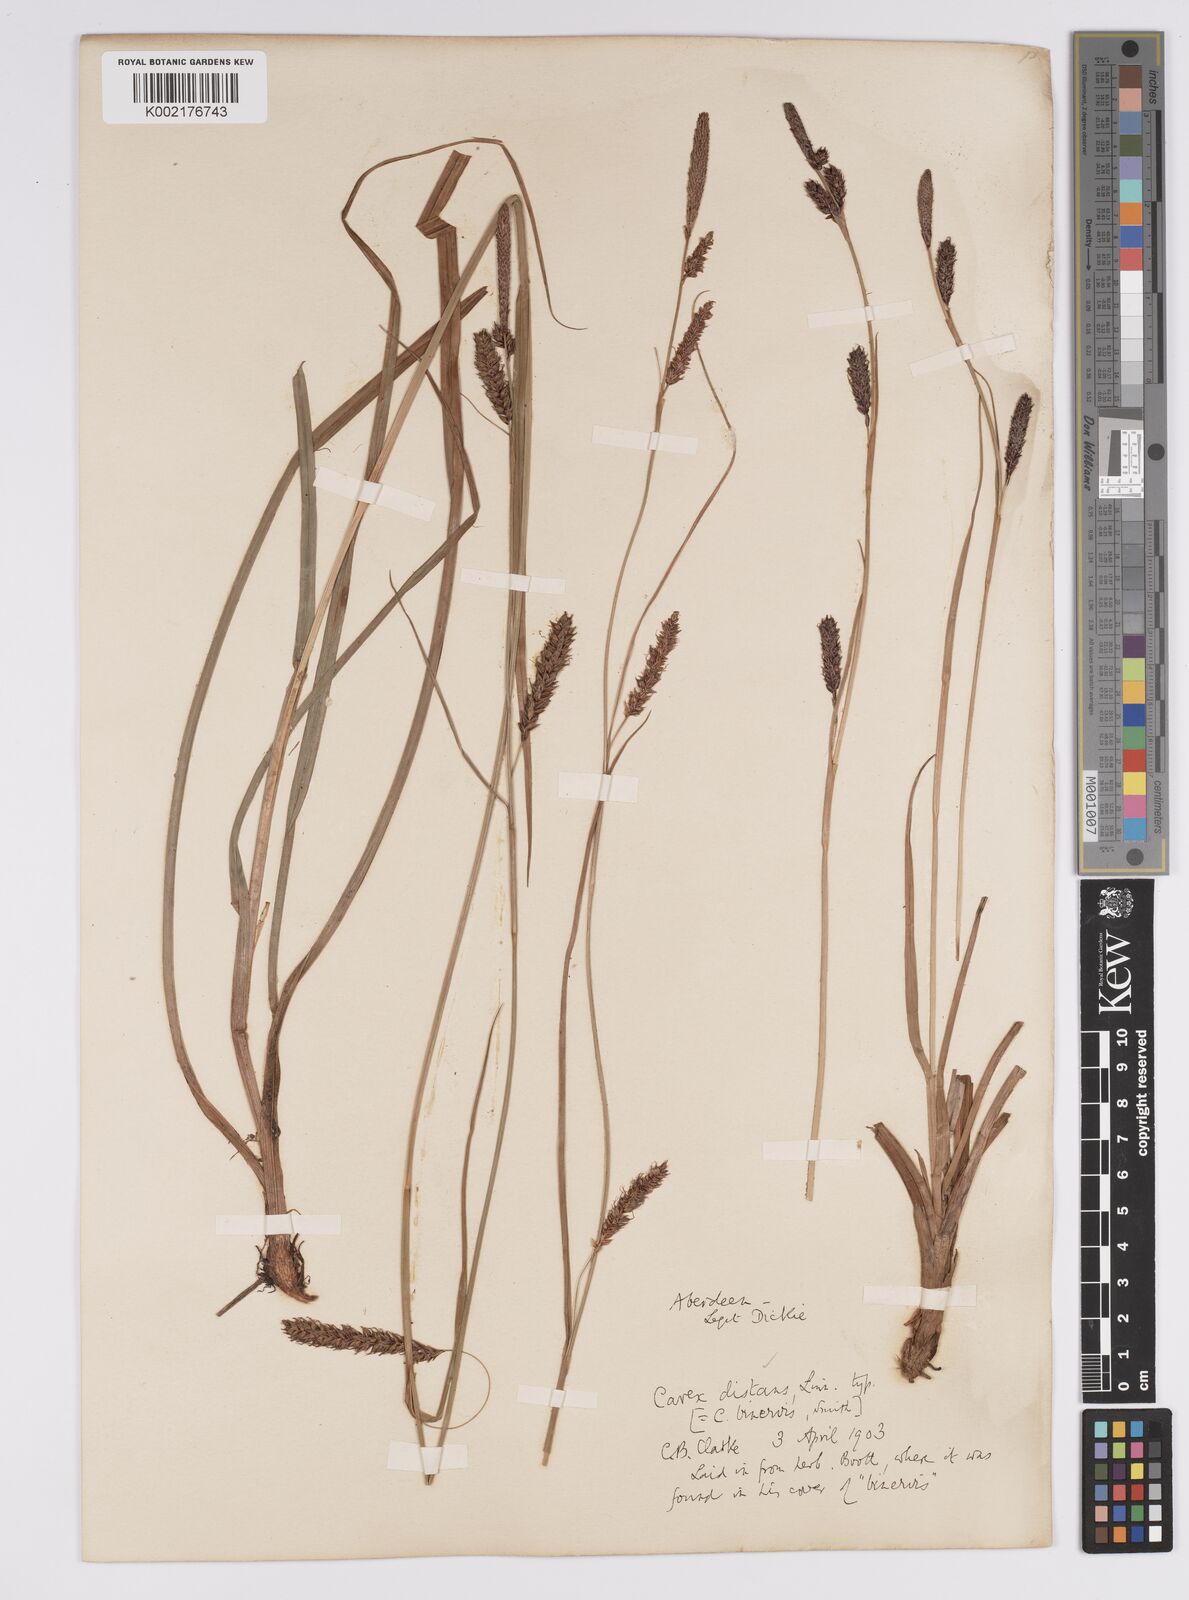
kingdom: Plantae
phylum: Tracheophyta
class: Liliopsida
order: Poales
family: Cyperaceae
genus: Carex
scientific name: Carex binervis
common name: Green-ribbed sedge
